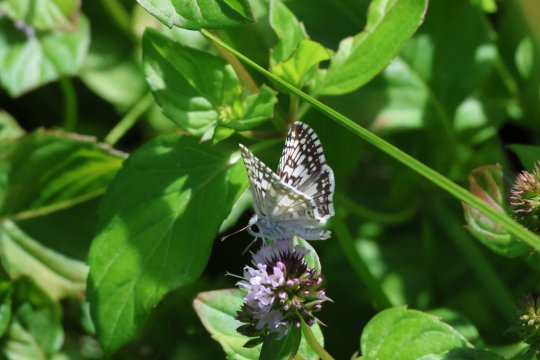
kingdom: Animalia
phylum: Arthropoda
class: Insecta
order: Lepidoptera
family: Hesperiidae
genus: Pyrgus
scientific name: Pyrgus communis
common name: Common Checkered-Skipper
